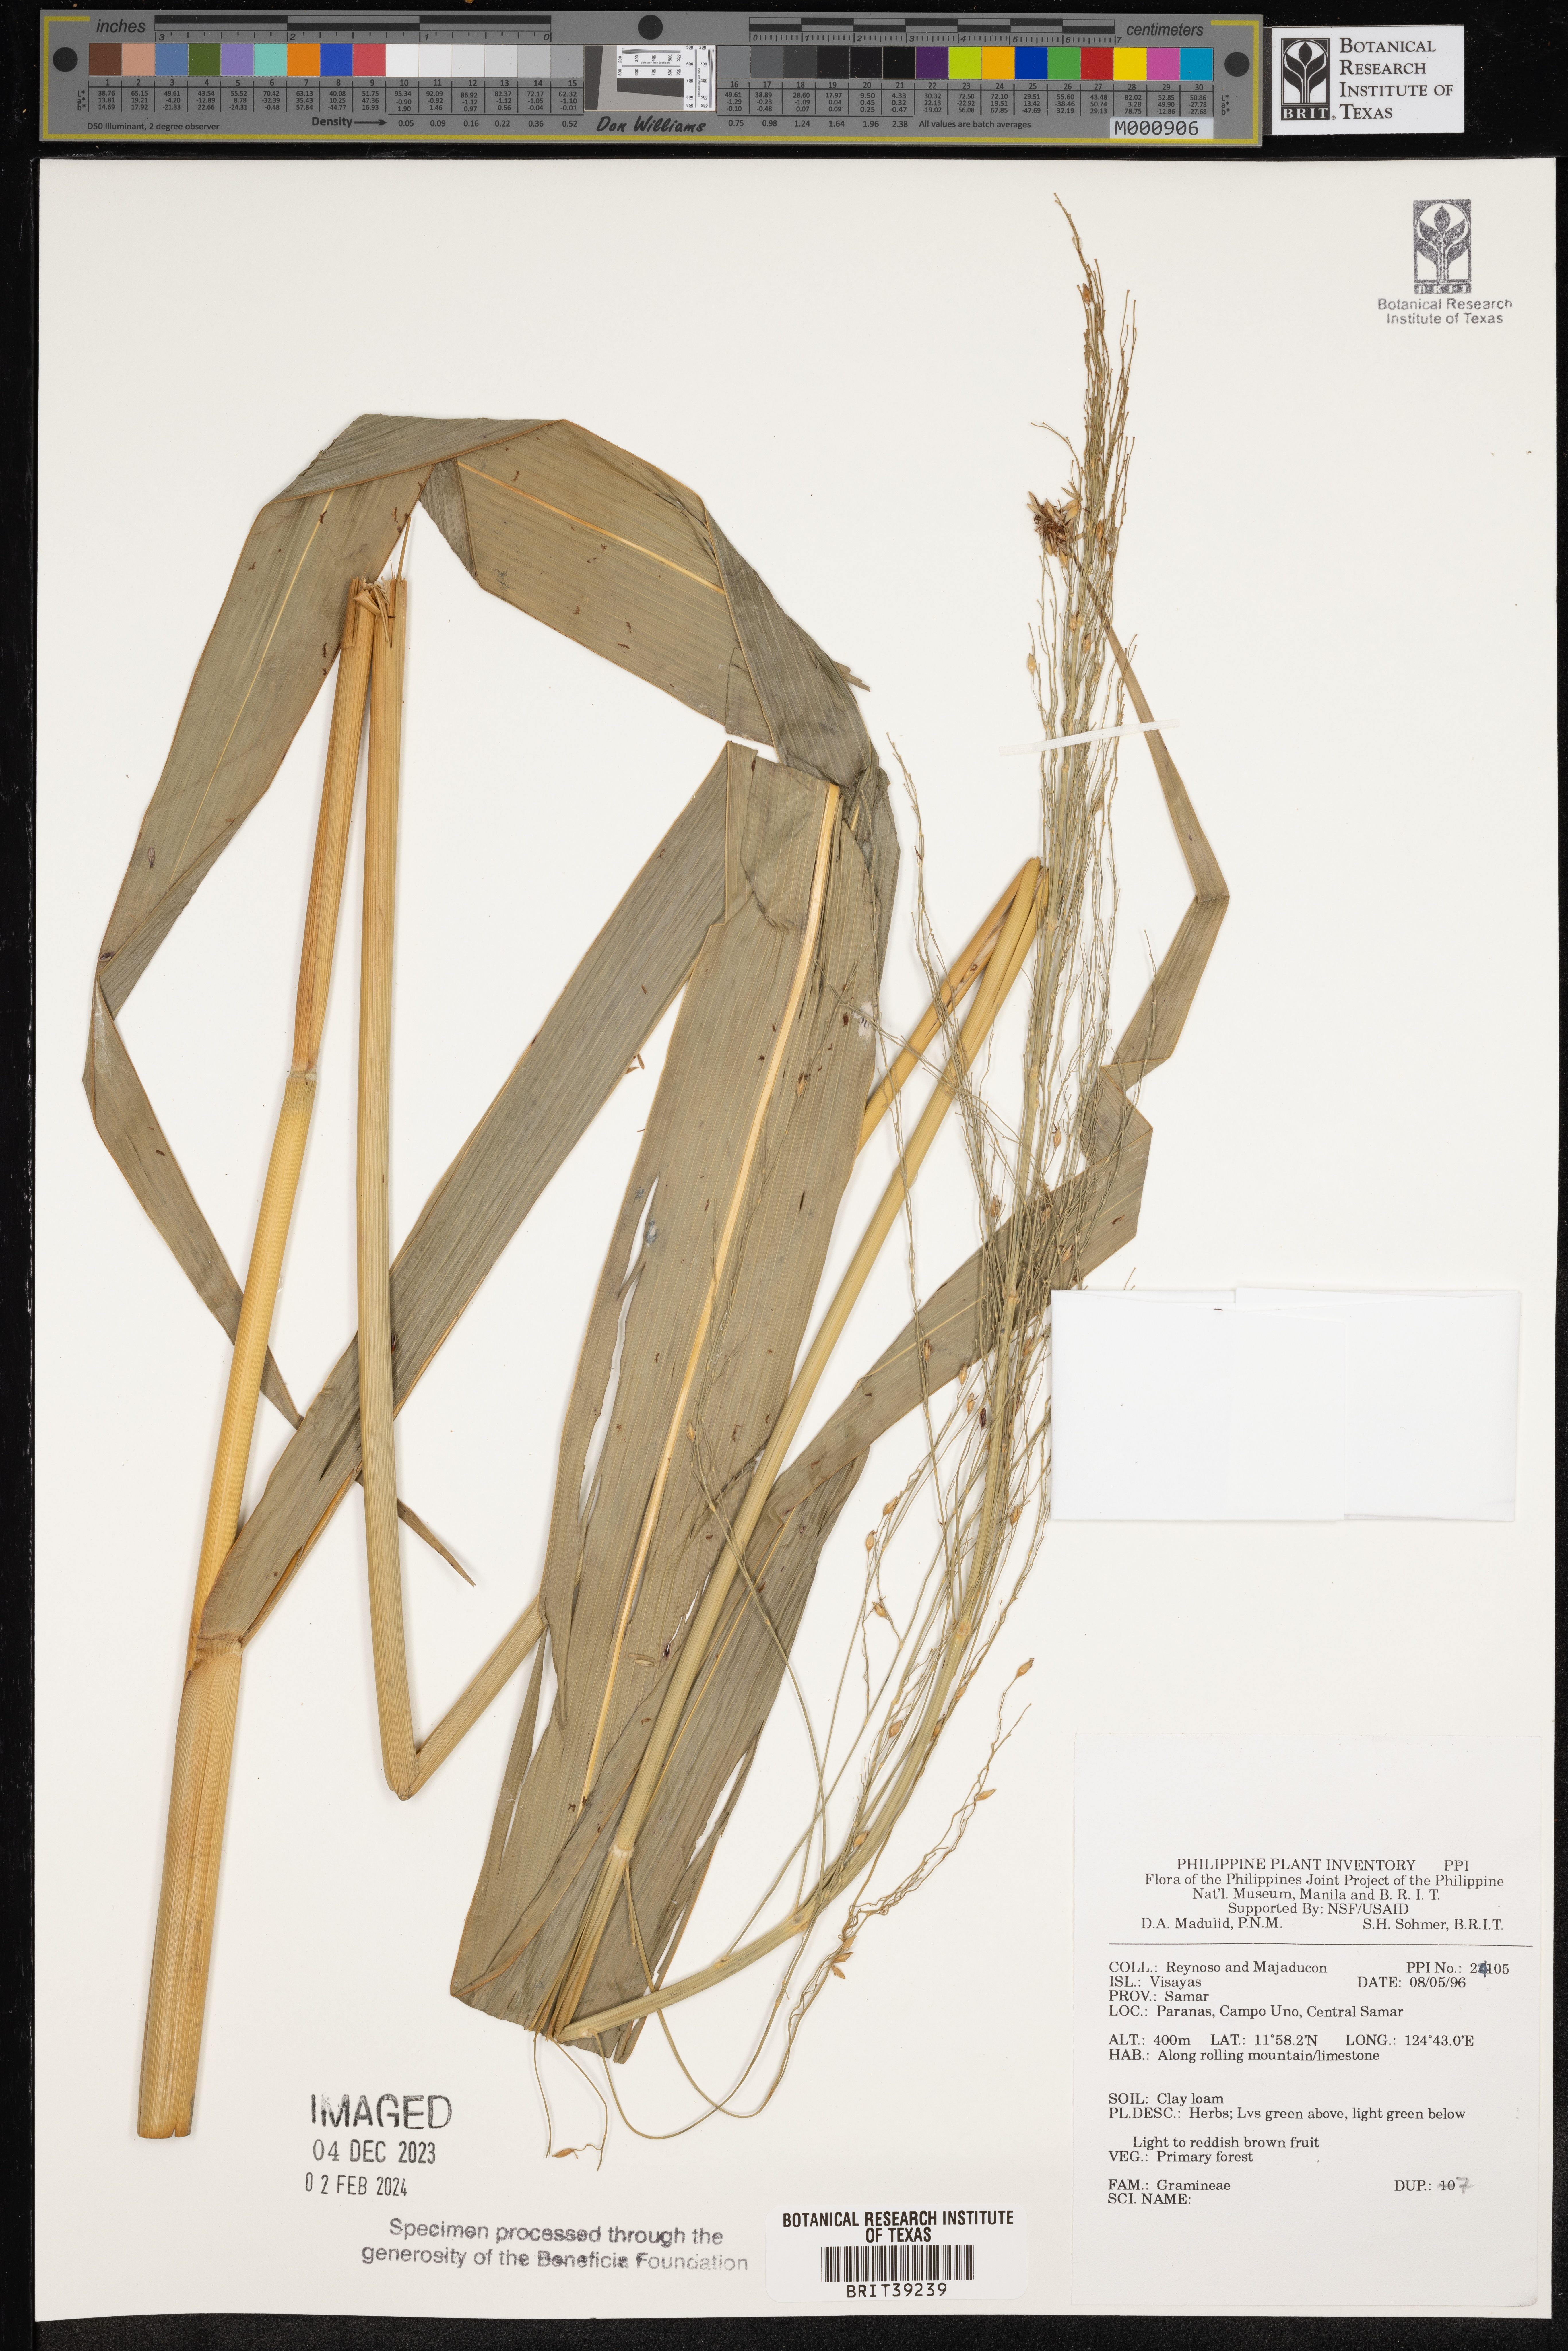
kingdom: Plantae
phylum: Tracheophyta
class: Liliopsida
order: Poales
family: Poaceae
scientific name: Poaceae
